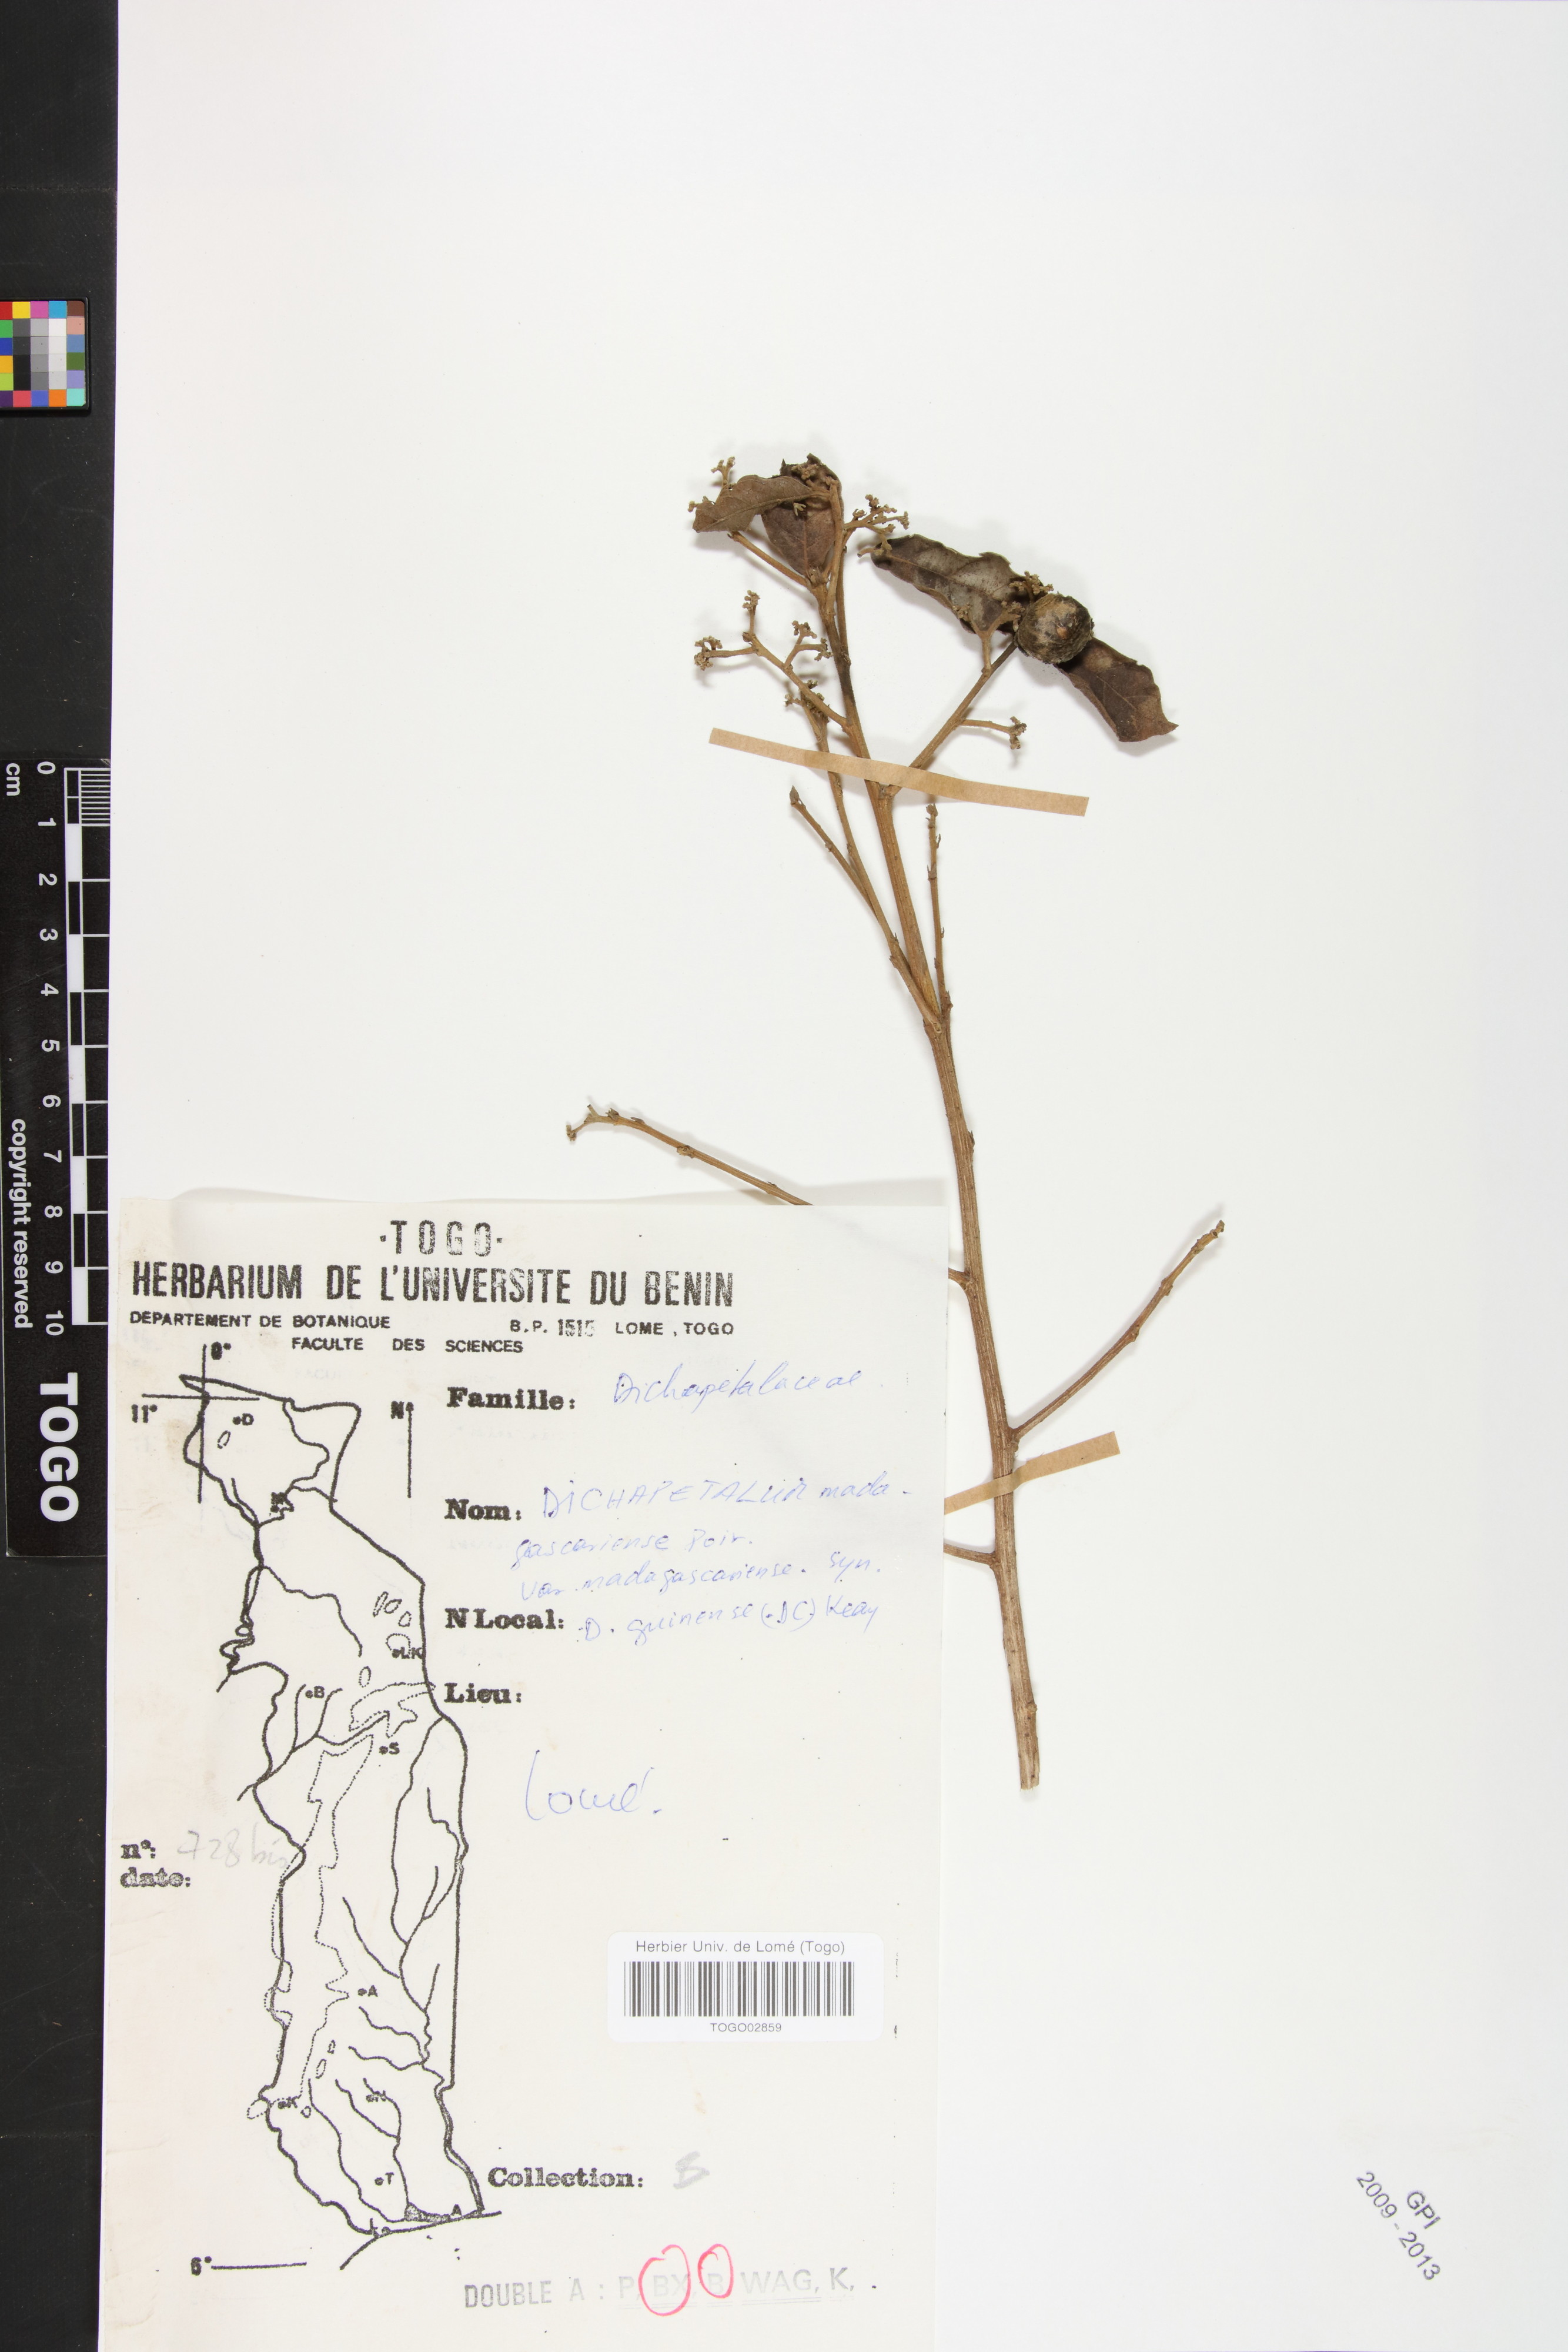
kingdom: Plantae
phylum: Tracheophyta
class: Magnoliopsida
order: Malpighiales
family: Dichapetalaceae
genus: Dichapetalum
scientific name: Dichapetalum madagascariense
